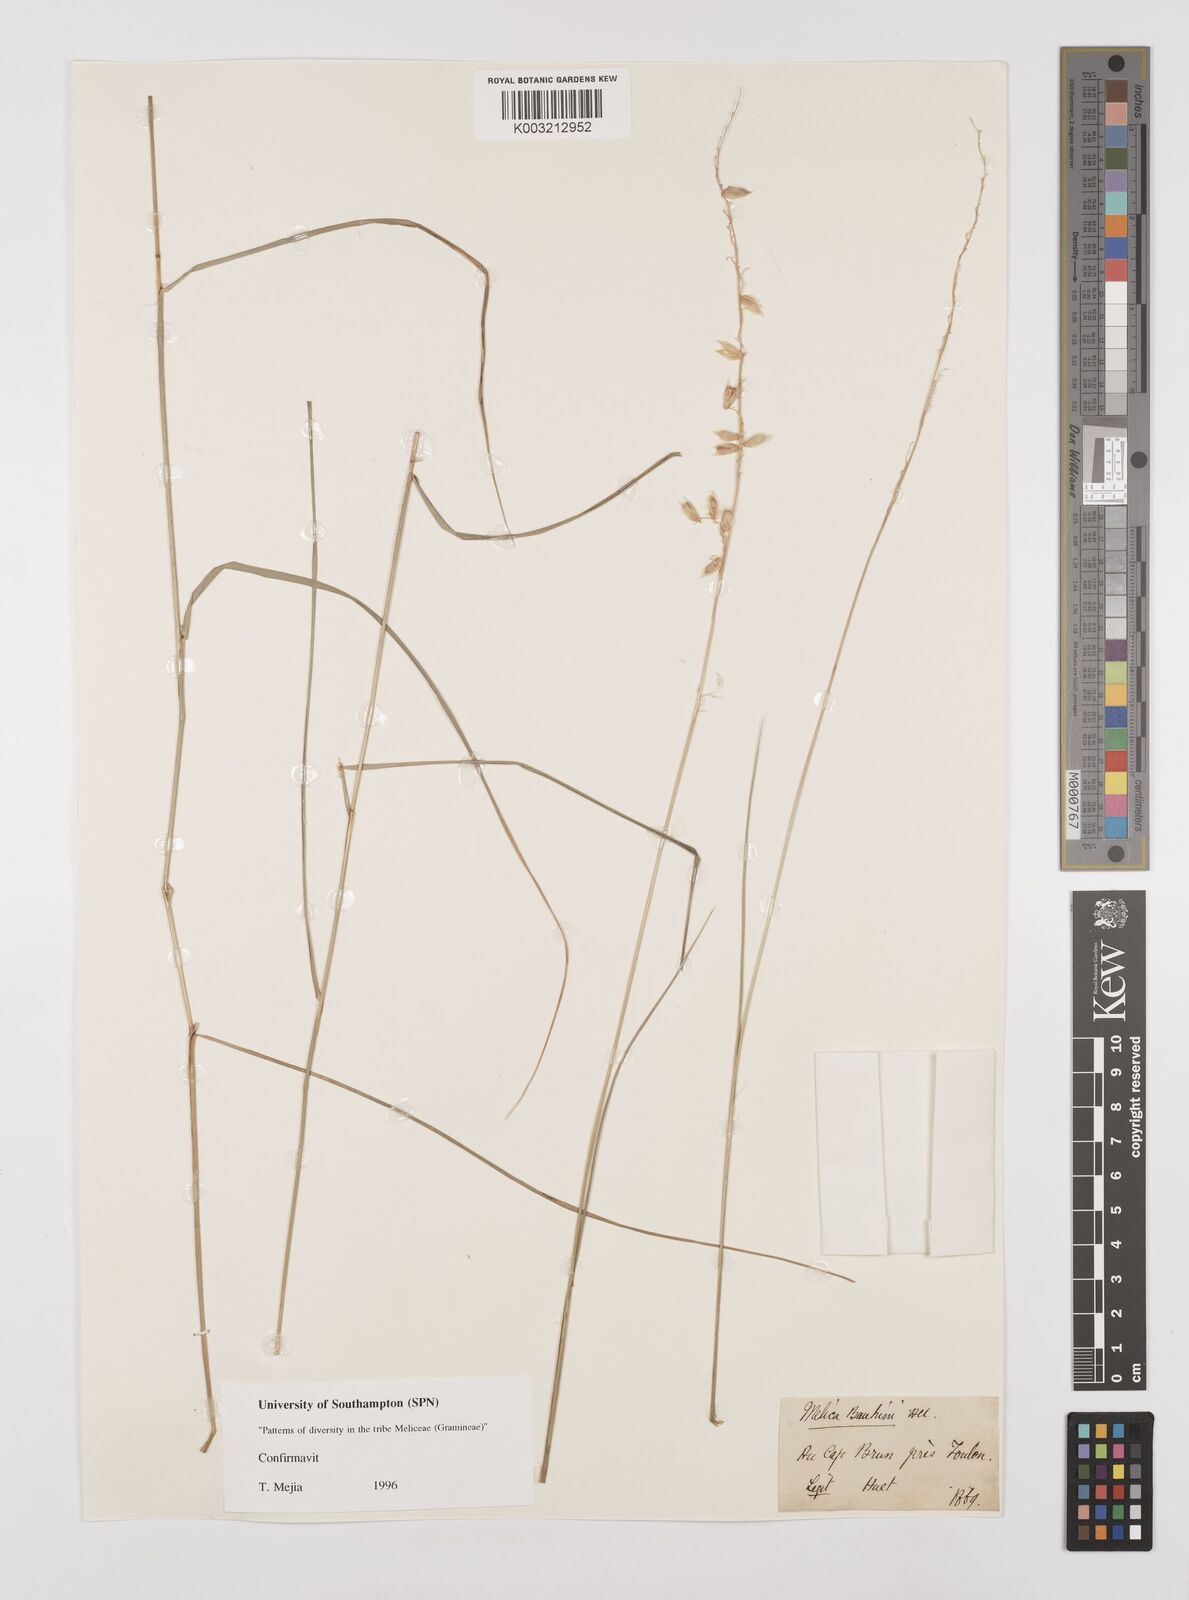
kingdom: Plantae
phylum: Tracheophyta
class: Liliopsida
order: Poales
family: Poaceae
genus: Melica
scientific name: Melica amethystina
